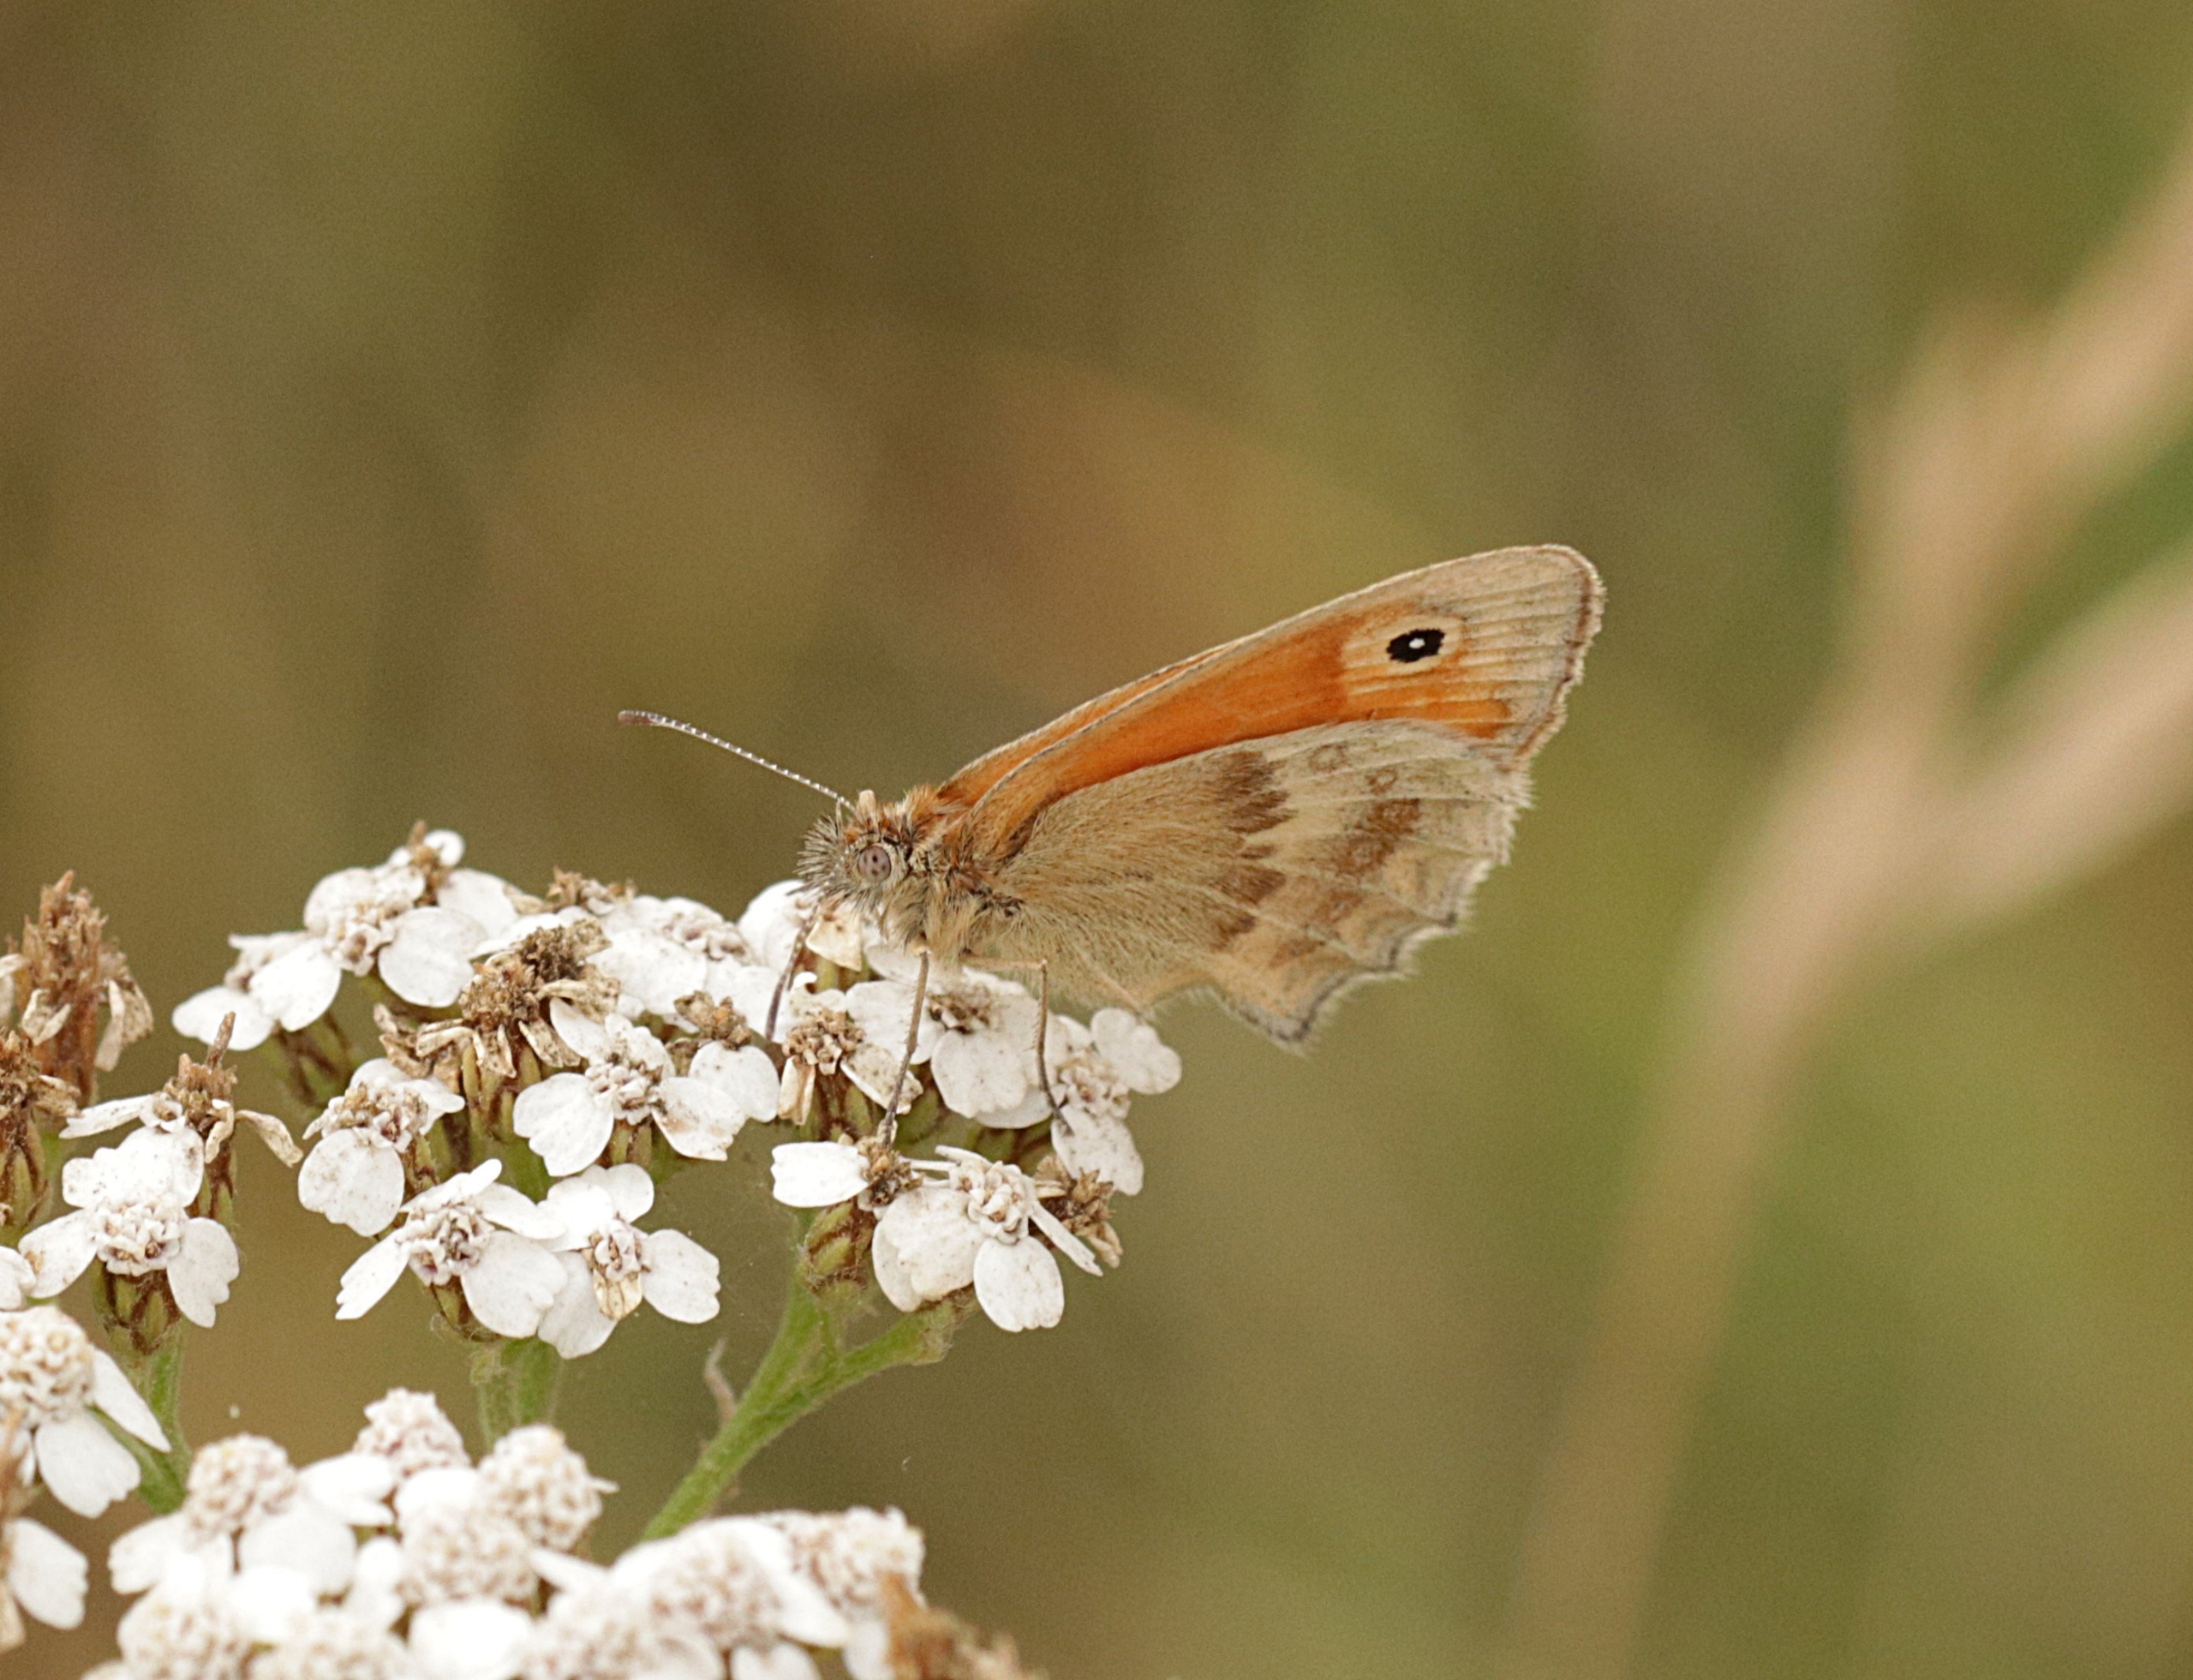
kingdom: Animalia
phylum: Arthropoda
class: Insecta
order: Lepidoptera
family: Nymphalidae
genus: Coenonympha
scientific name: Coenonympha pamphilus
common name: Okkergul randøje
